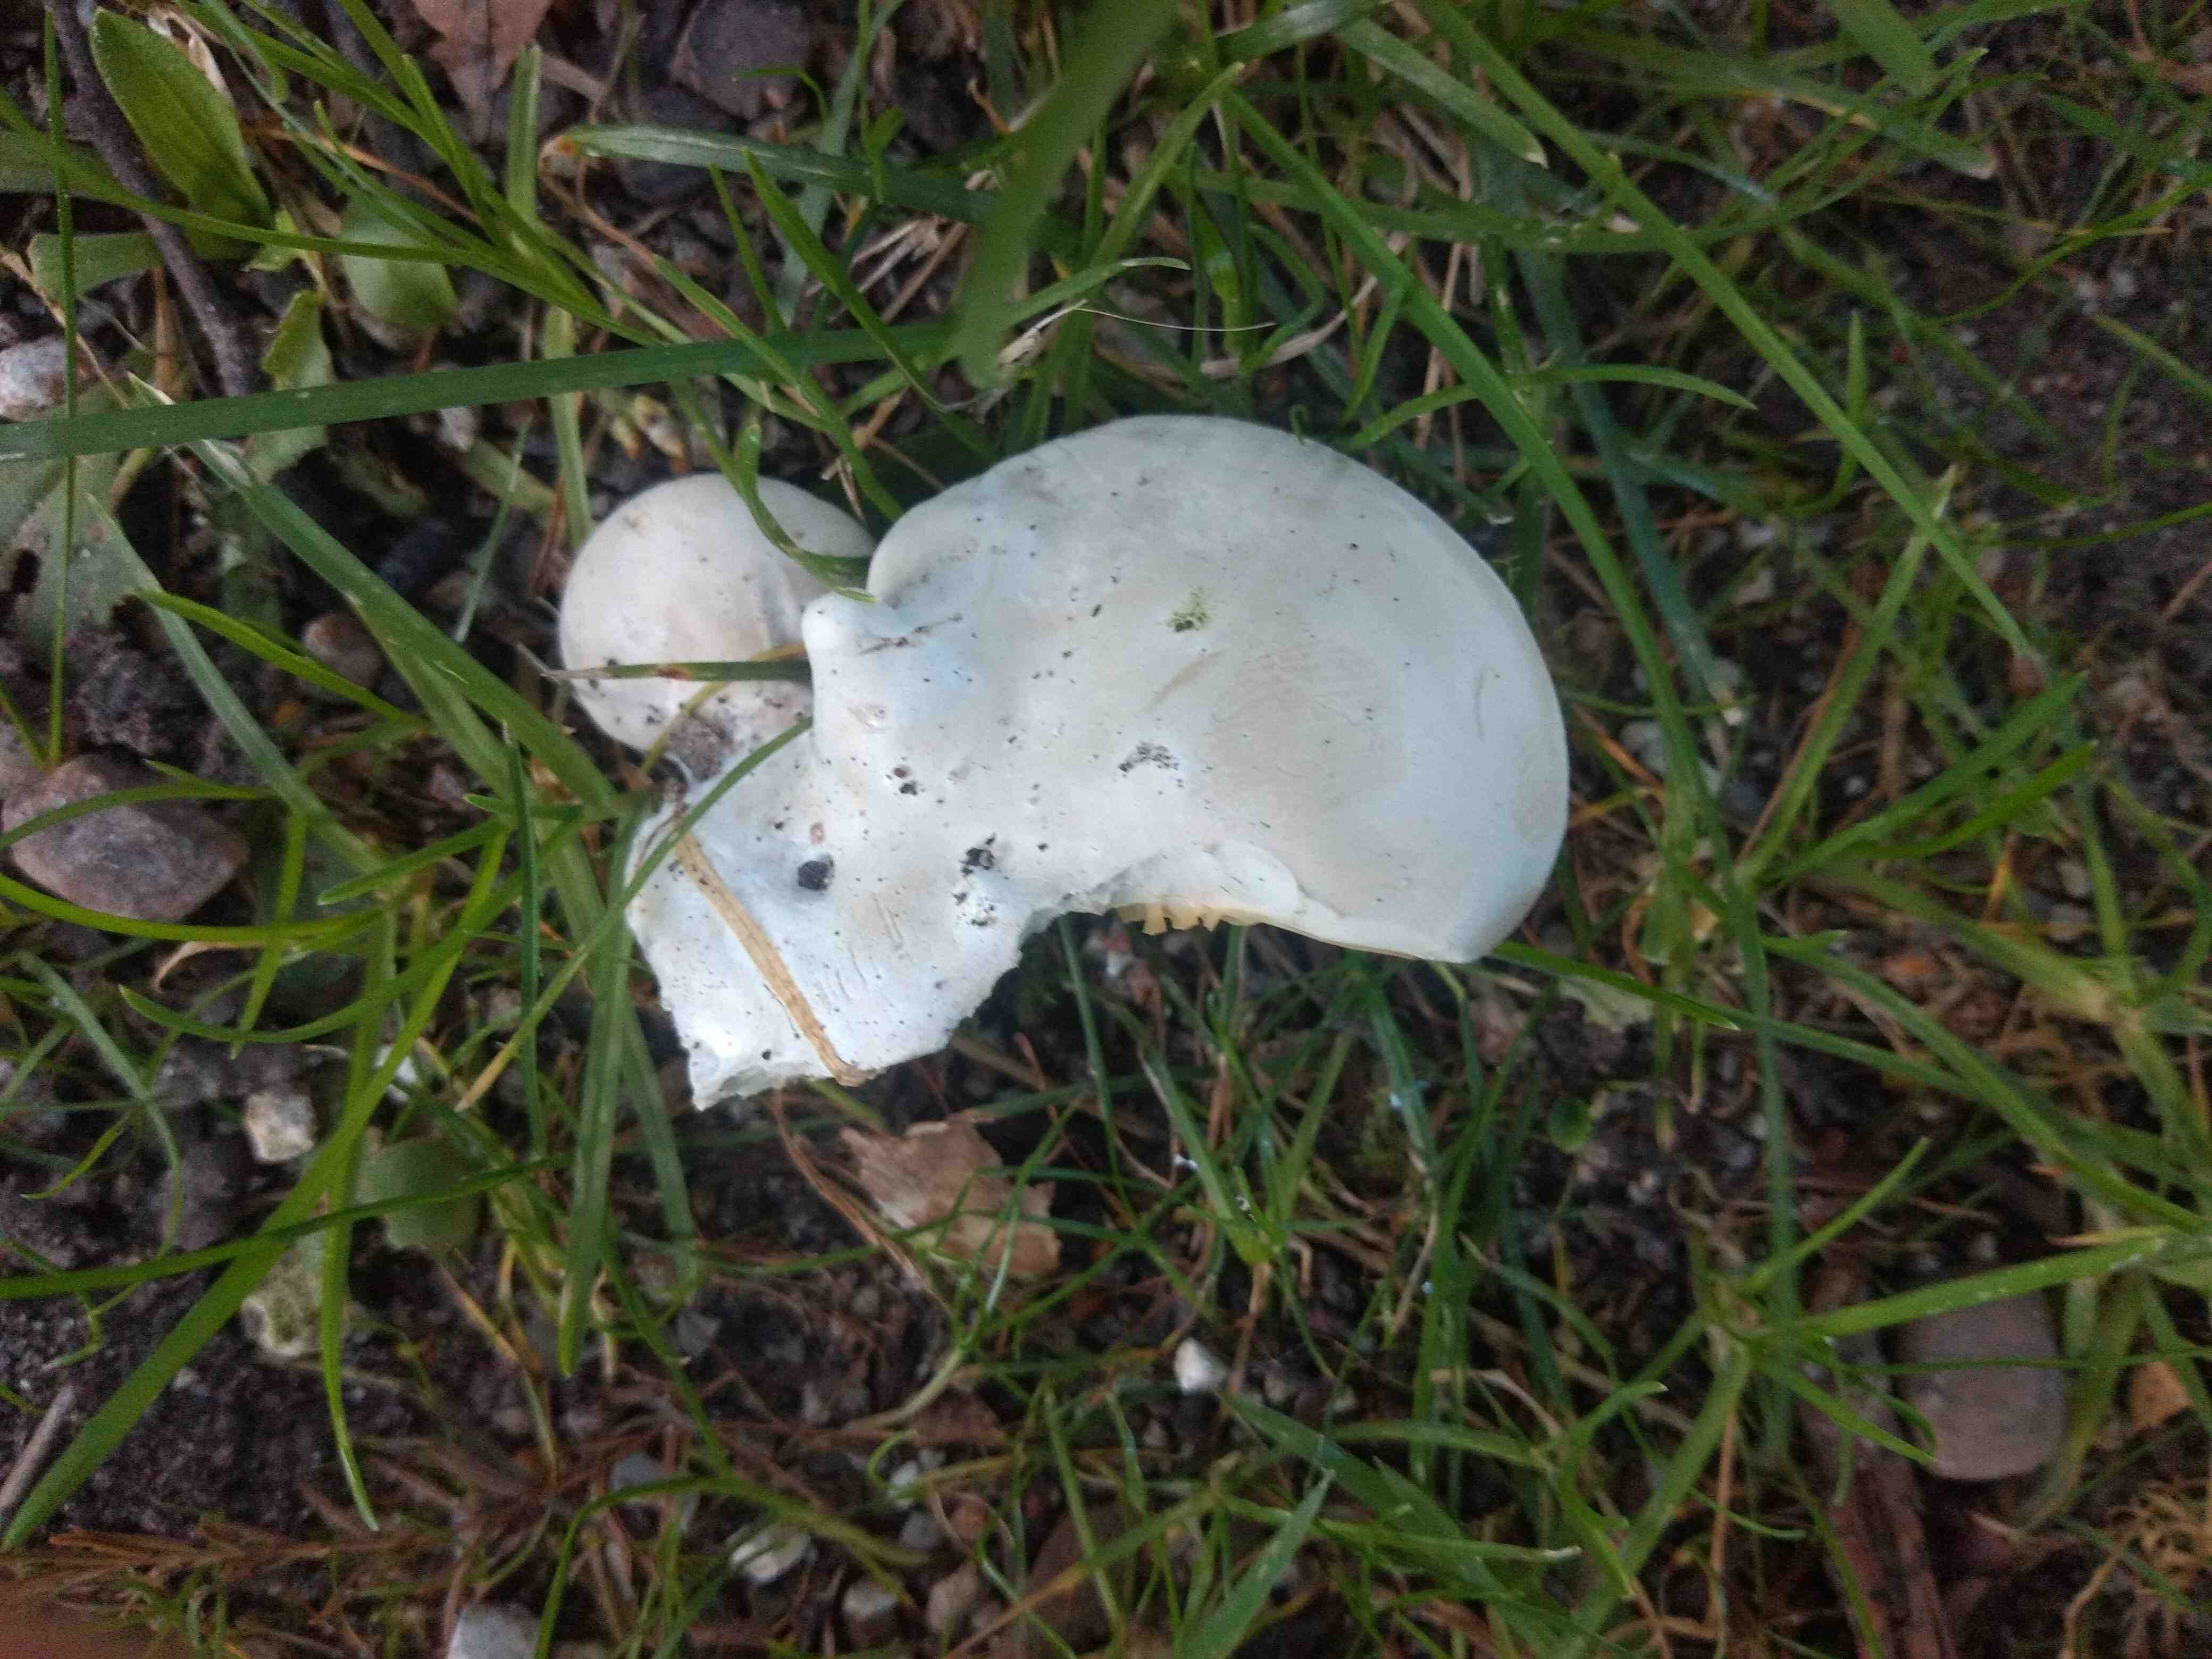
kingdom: Fungi
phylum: Basidiomycota
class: Agaricomycetes
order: Agaricales
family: Entolomataceae
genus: Clitopilus
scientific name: Clitopilus prunulus
